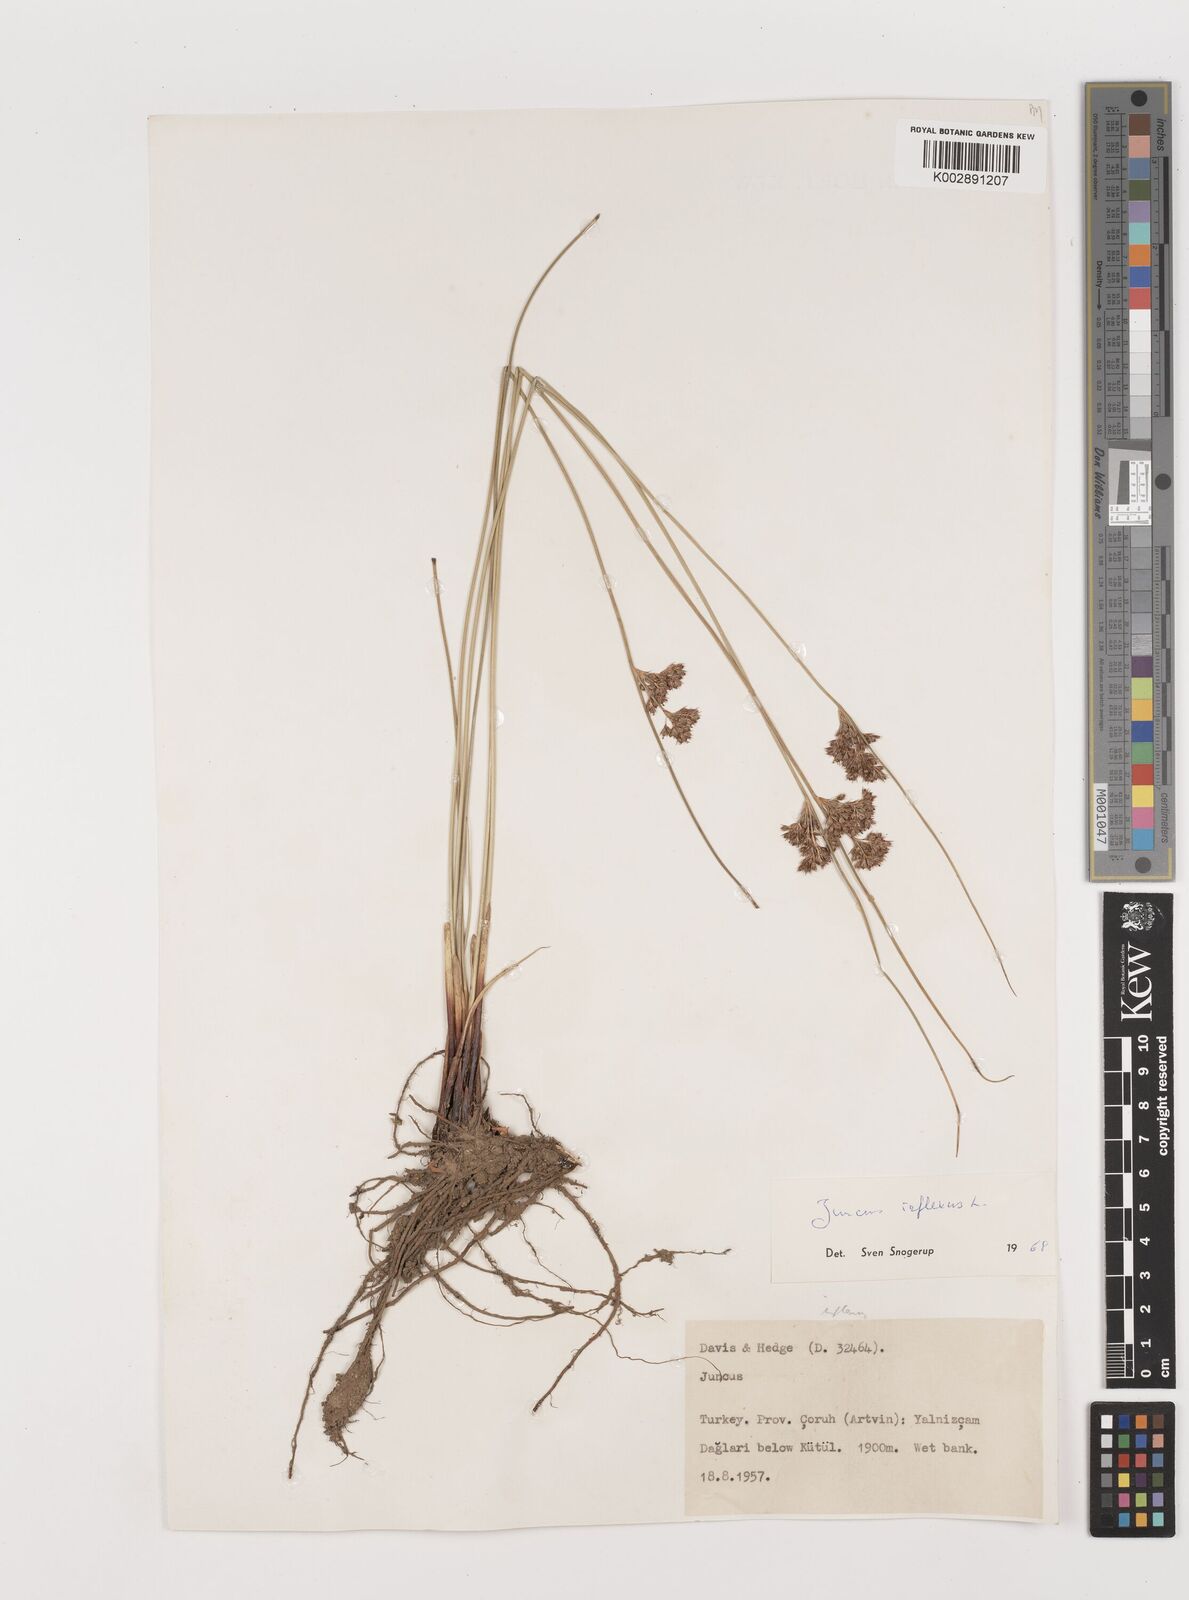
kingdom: Plantae
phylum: Tracheophyta
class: Liliopsida
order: Poales
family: Juncaceae
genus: Juncus
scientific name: Juncus inflexus
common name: Hard rush
